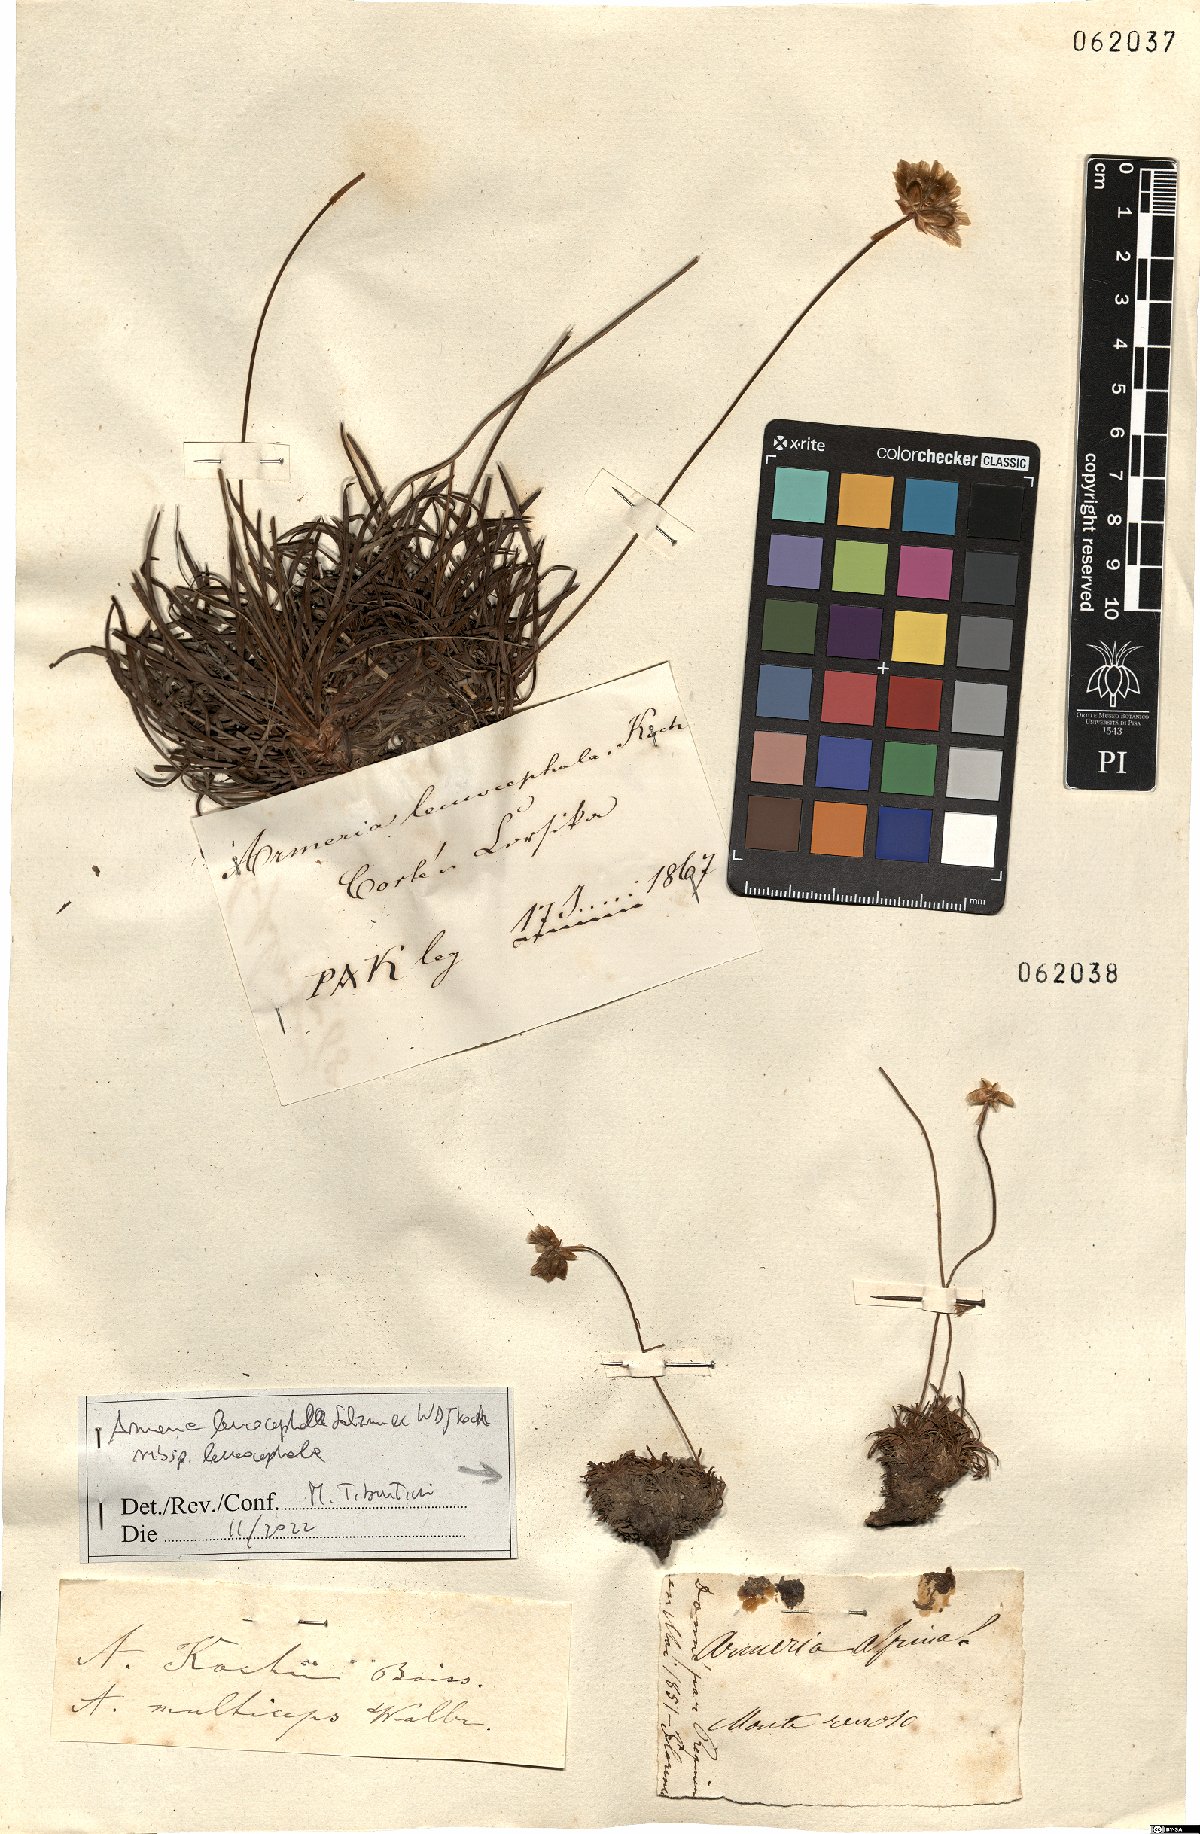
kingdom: Plantae
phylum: Tracheophyta
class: Magnoliopsida
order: Caryophyllales
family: Plumbaginaceae
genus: Armeria
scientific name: Armeria leucocephala
